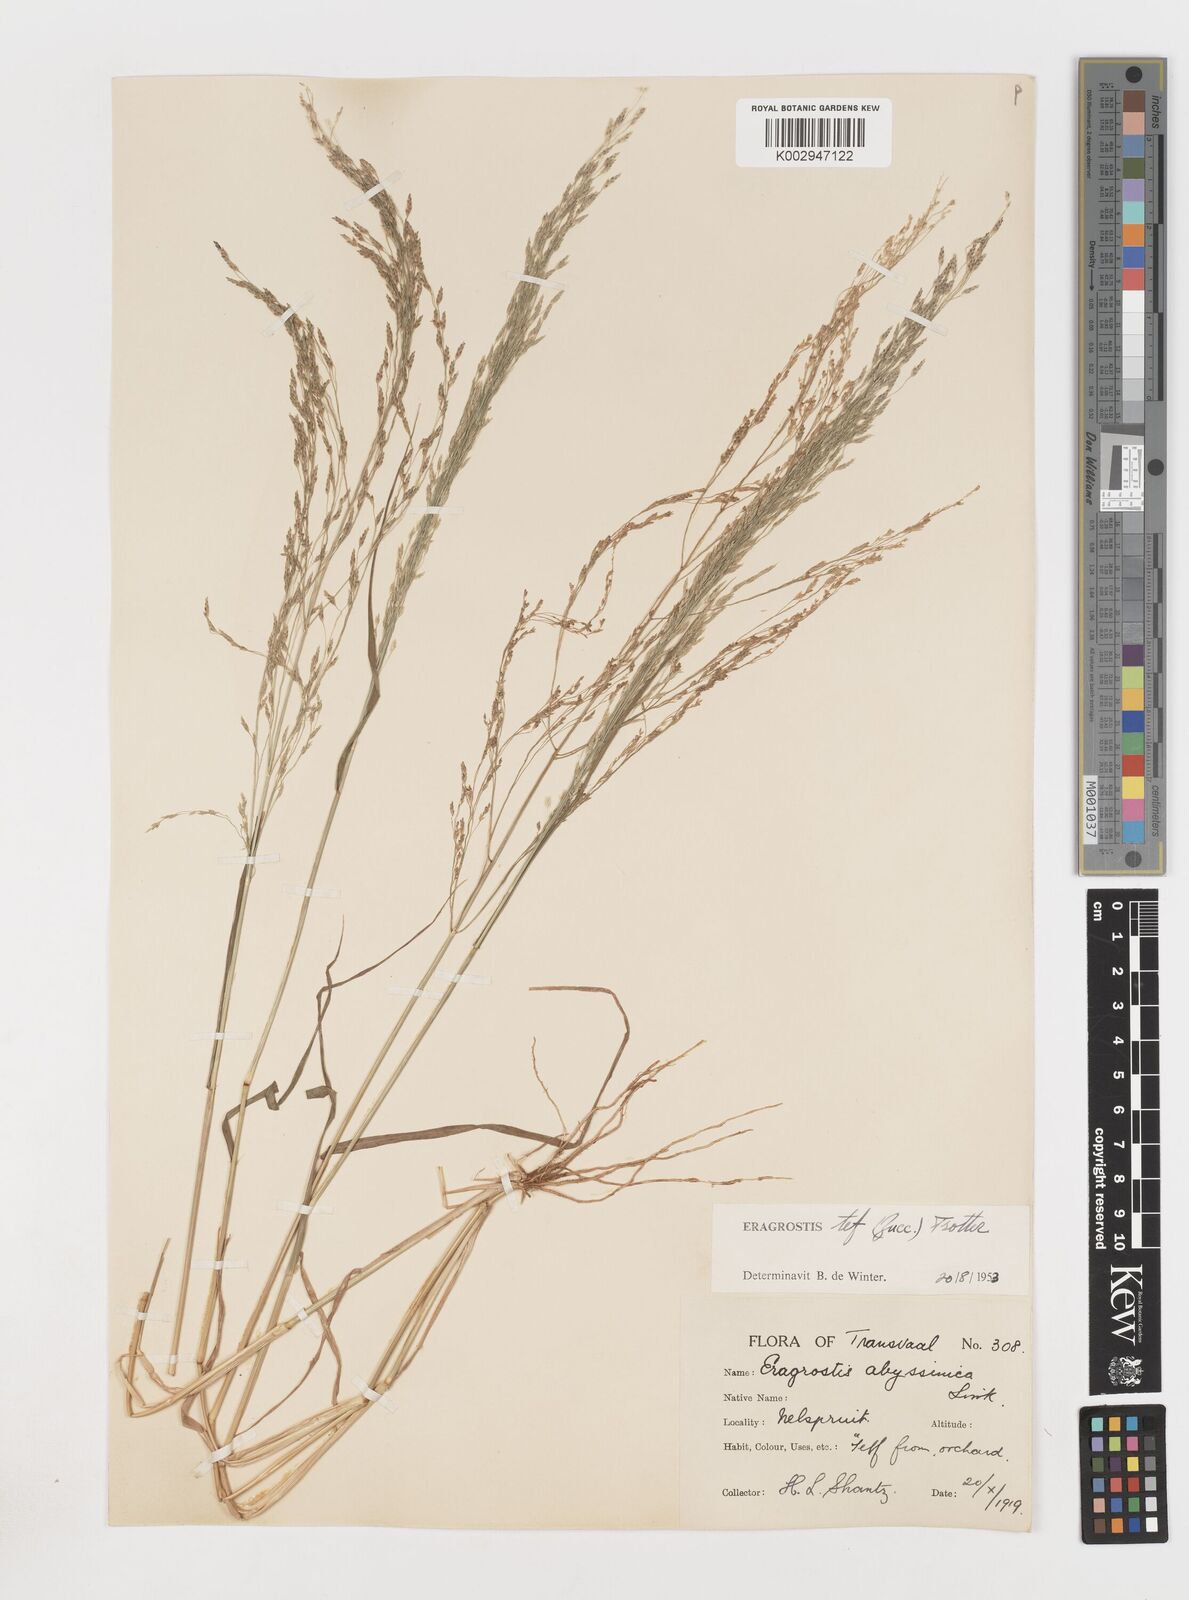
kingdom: Plantae
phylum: Tracheophyta
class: Liliopsida
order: Poales
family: Poaceae
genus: Eragrostis
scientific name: Eragrostis tef
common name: Teff
